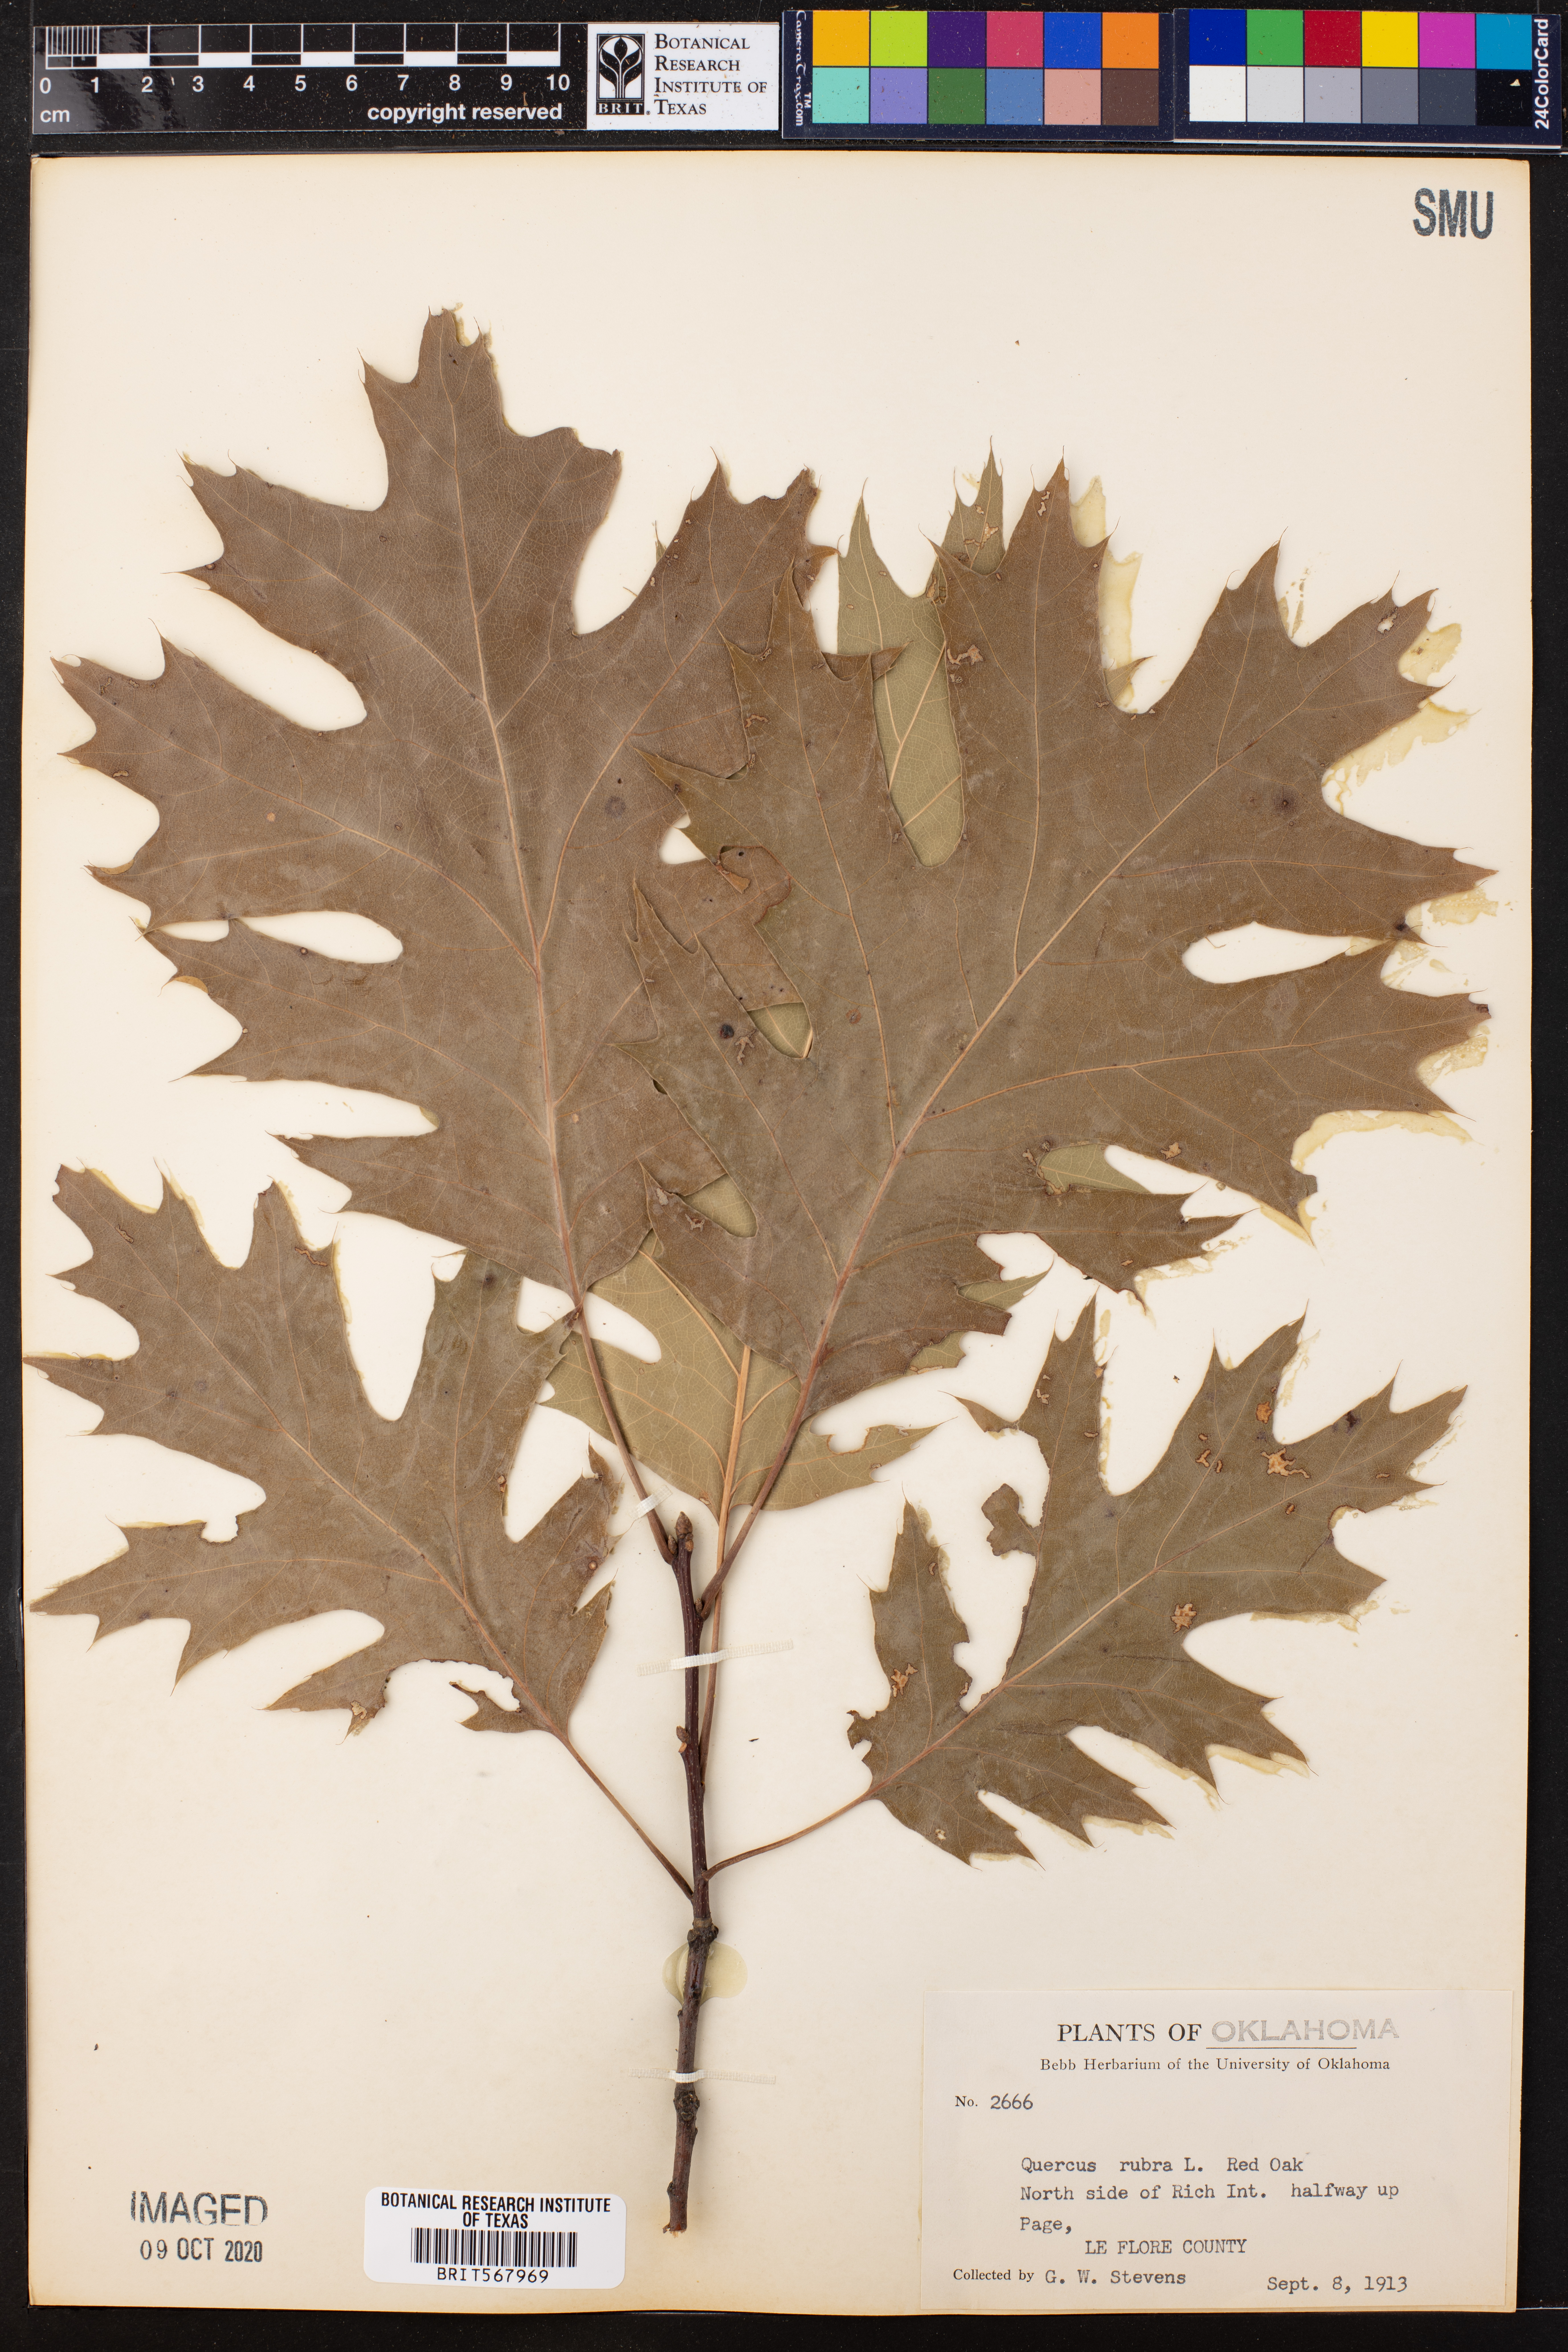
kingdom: Plantae
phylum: Tracheophyta
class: Magnoliopsida
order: Fagales
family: Fagaceae
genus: Quercus
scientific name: Quercus rubra
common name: Red oak
